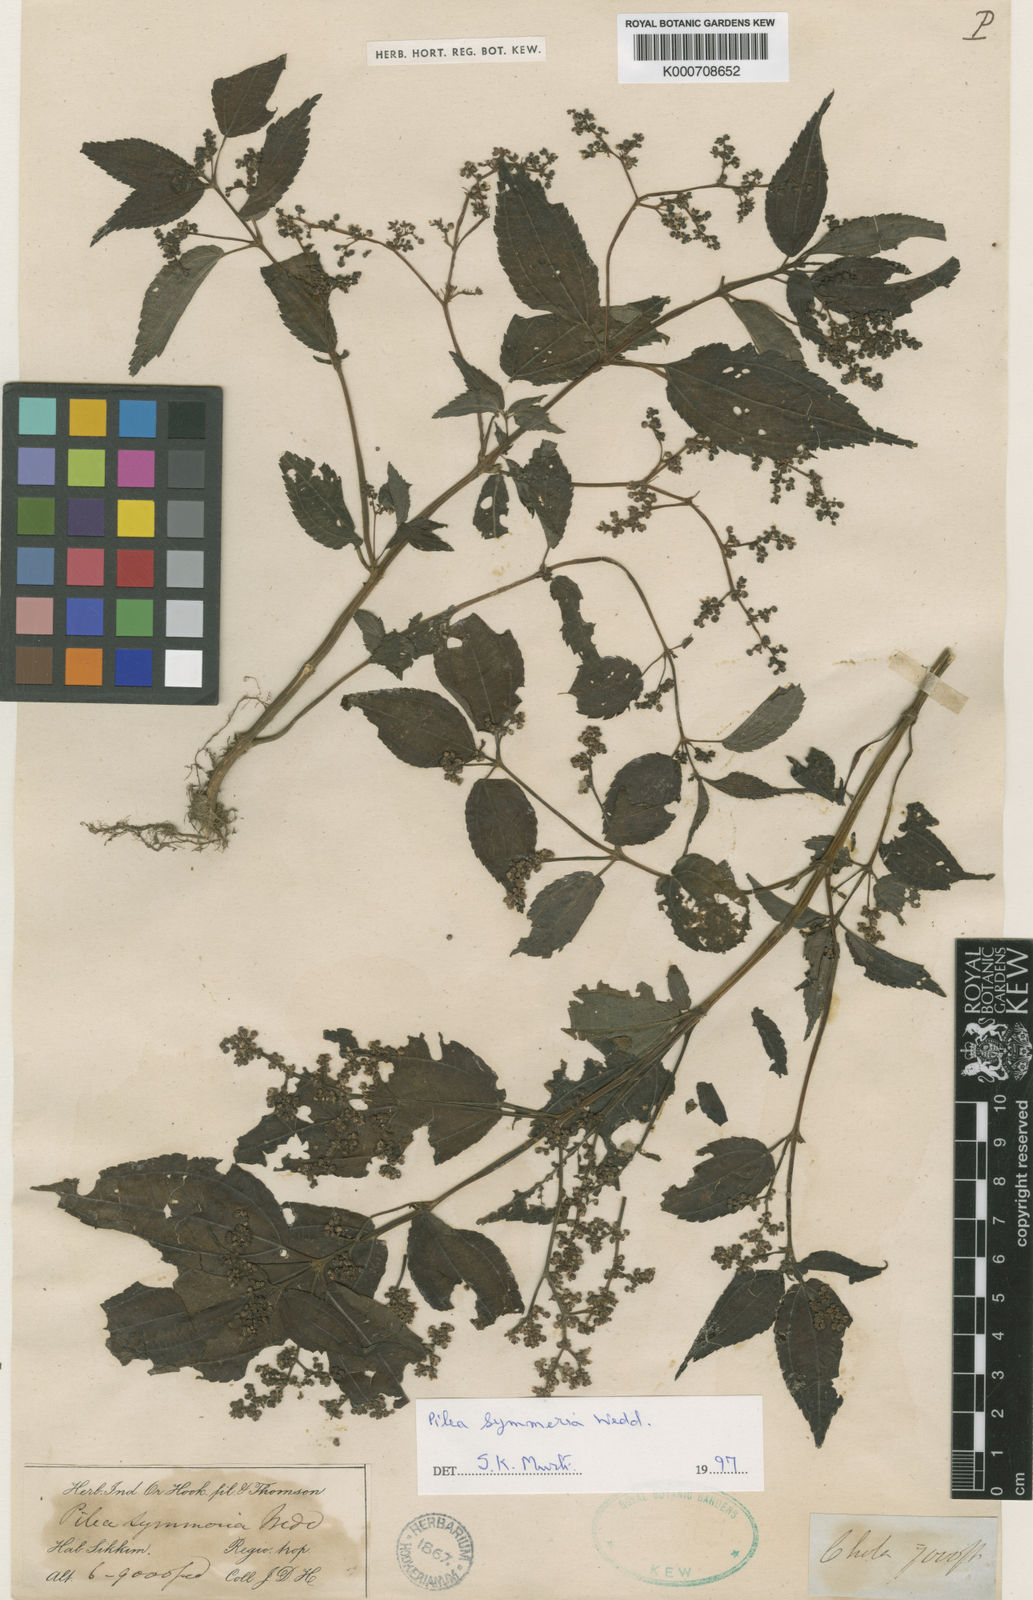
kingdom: Plantae
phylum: Tracheophyta
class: Magnoliopsida
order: Rosales
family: Urticaceae
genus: Pilea
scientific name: Pilea symmeria
